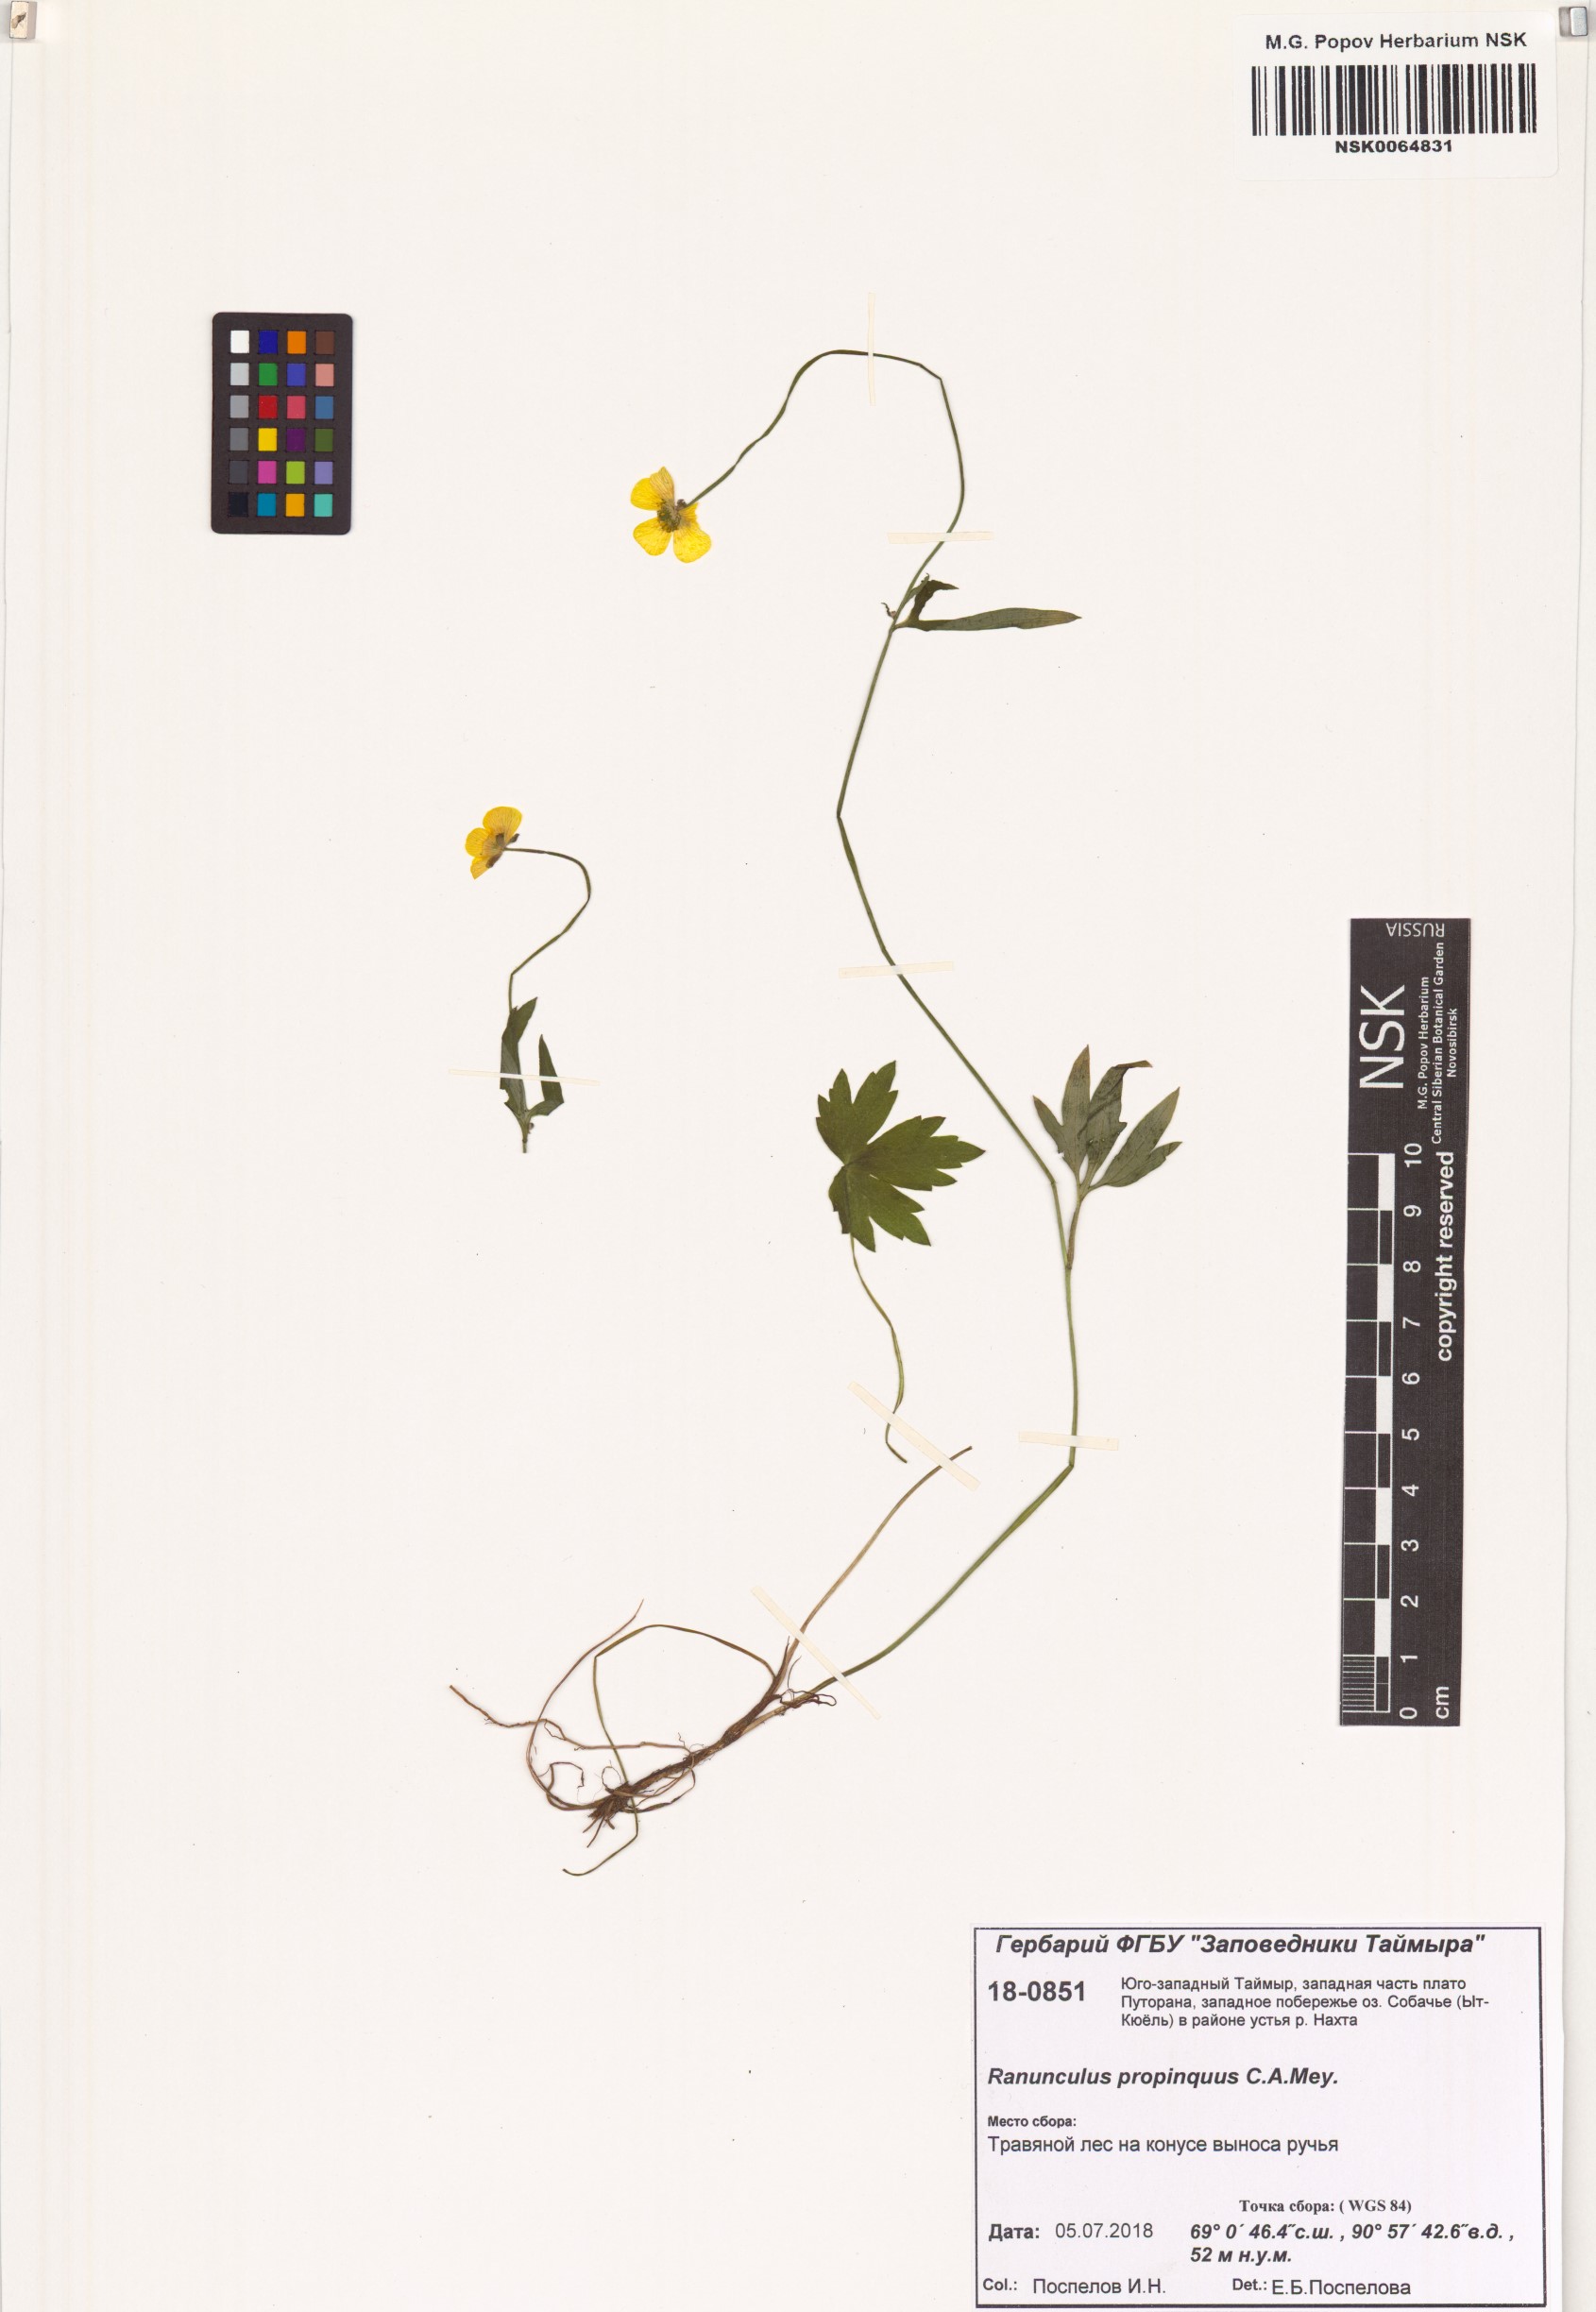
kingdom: Plantae
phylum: Tracheophyta
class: Magnoliopsida
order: Ranunculales
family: Ranunculaceae
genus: Ranunculus
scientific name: Ranunculus propinquus
